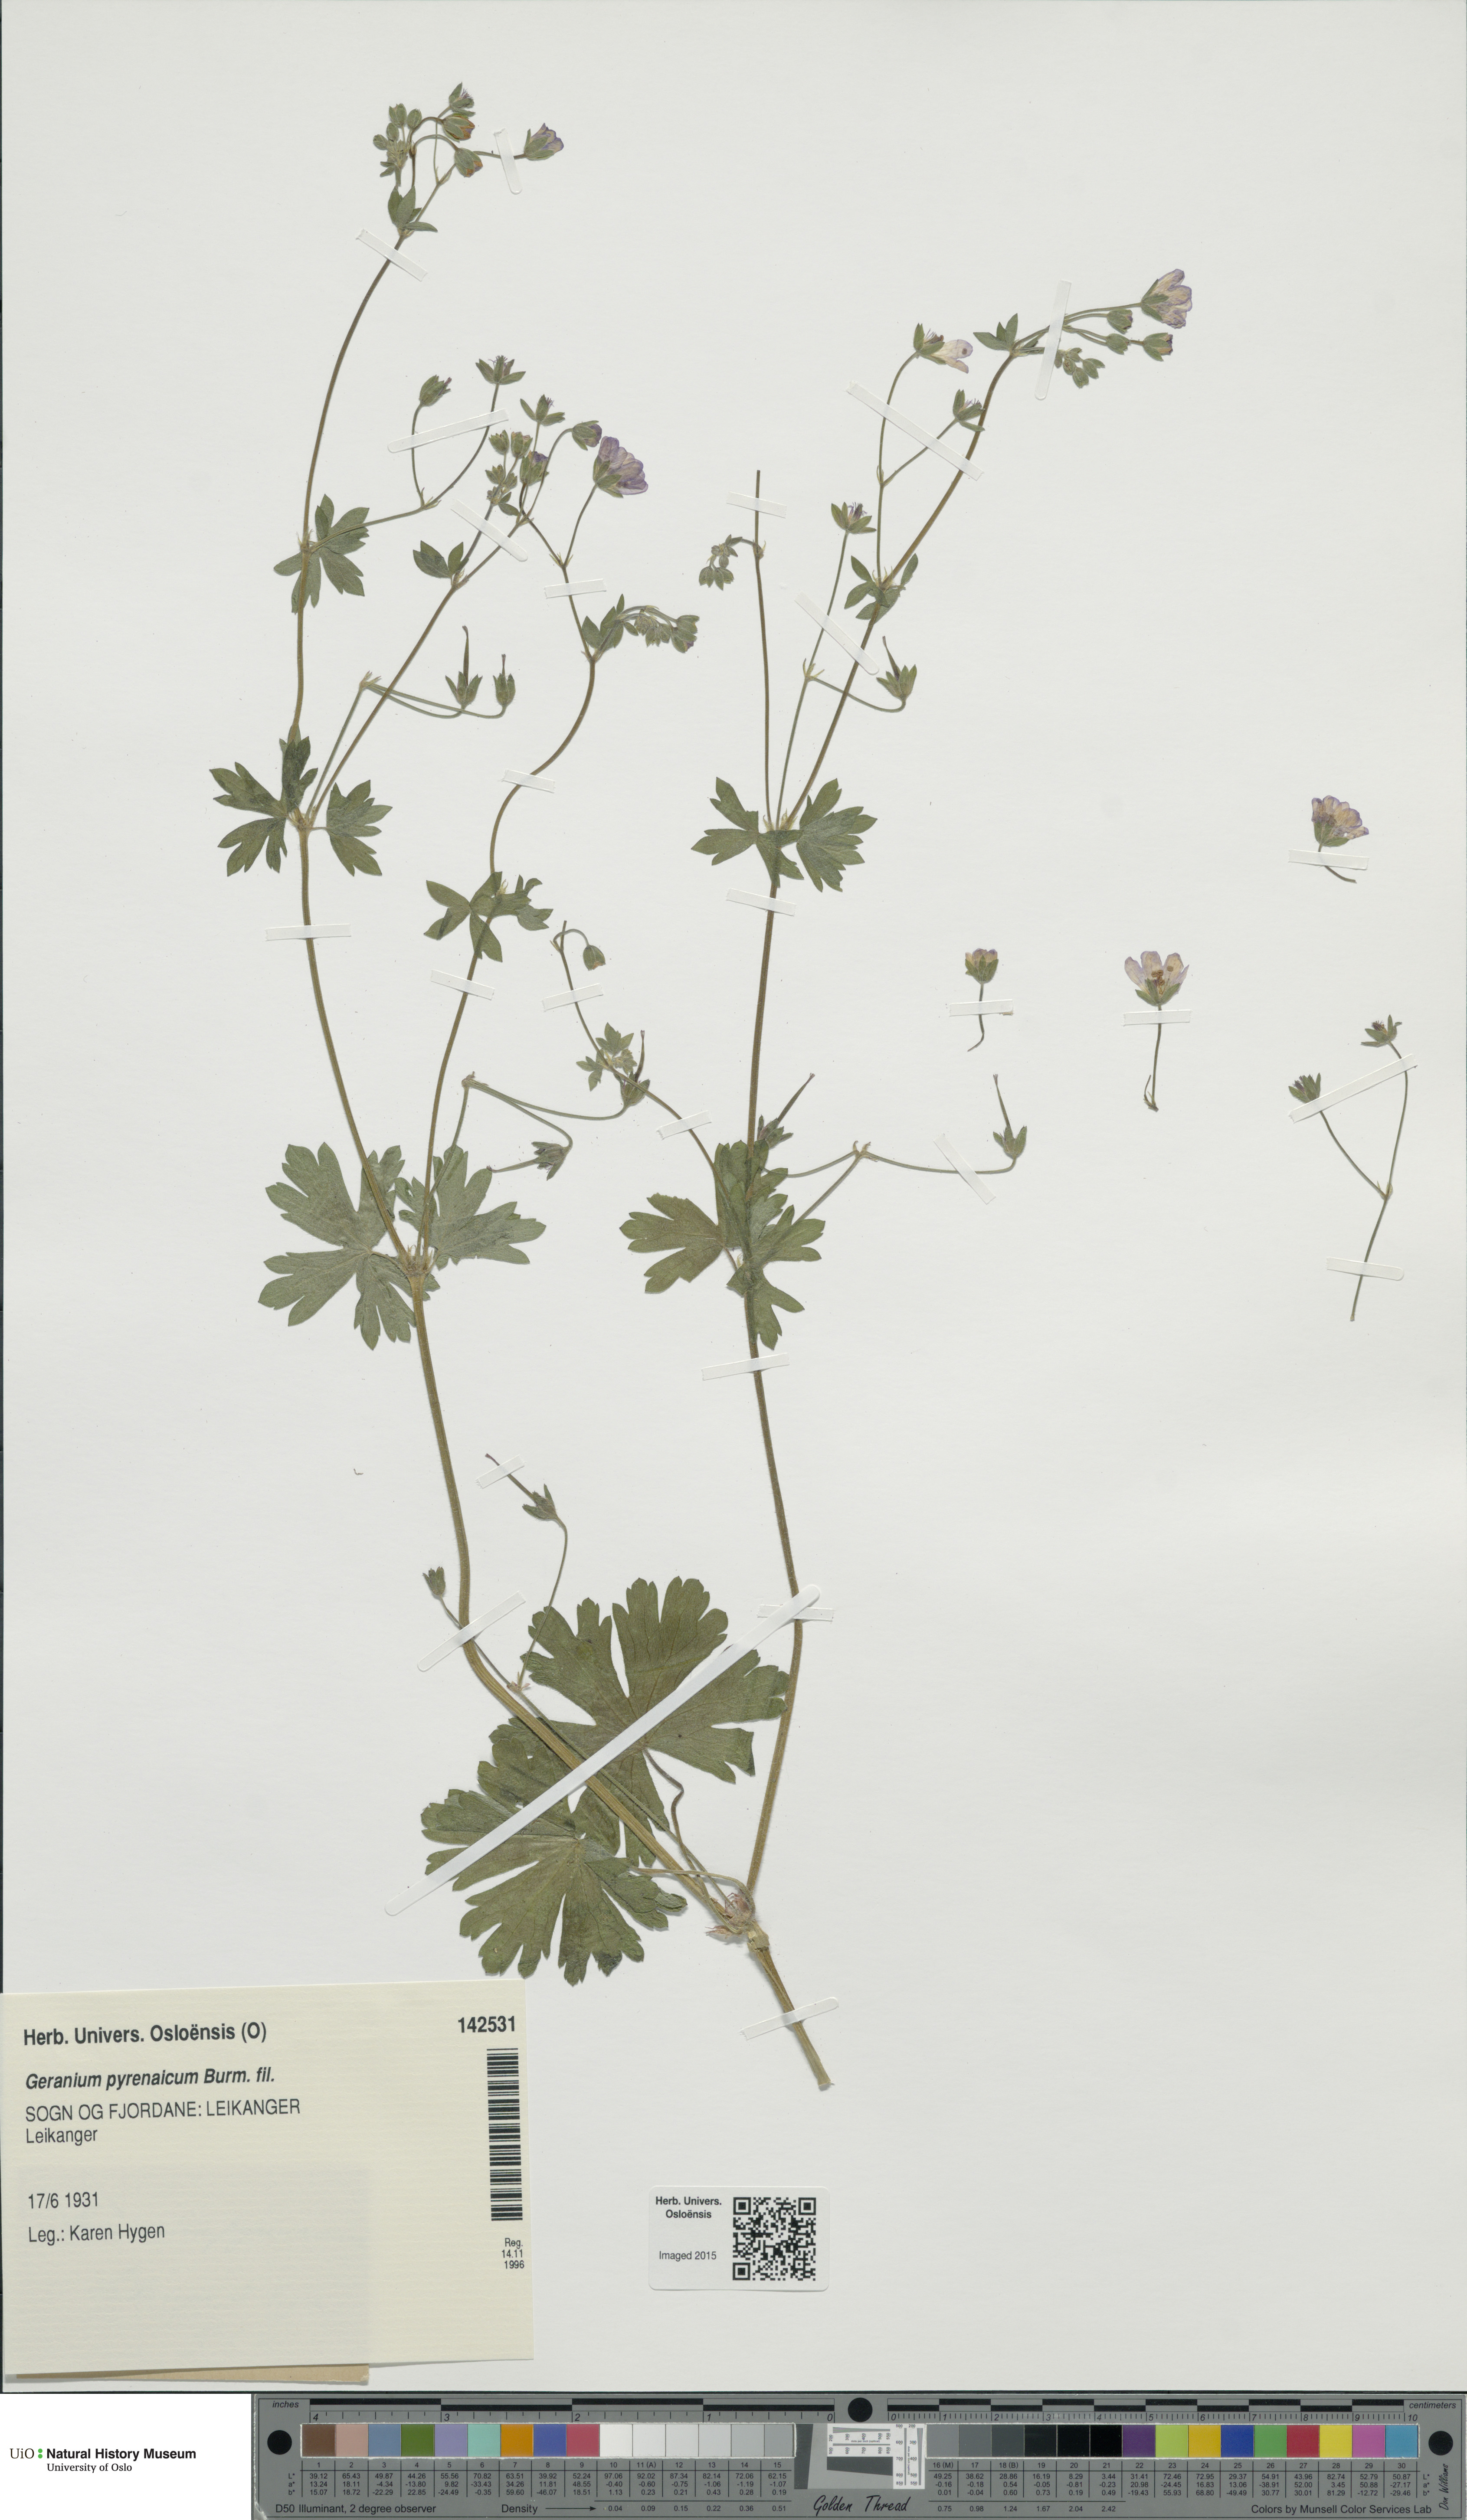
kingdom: Plantae
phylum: Tracheophyta
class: Magnoliopsida
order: Geraniales
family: Geraniaceae
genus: Geranium
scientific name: Geranium pyrenaicum
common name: Hedgerow crane's-bill
